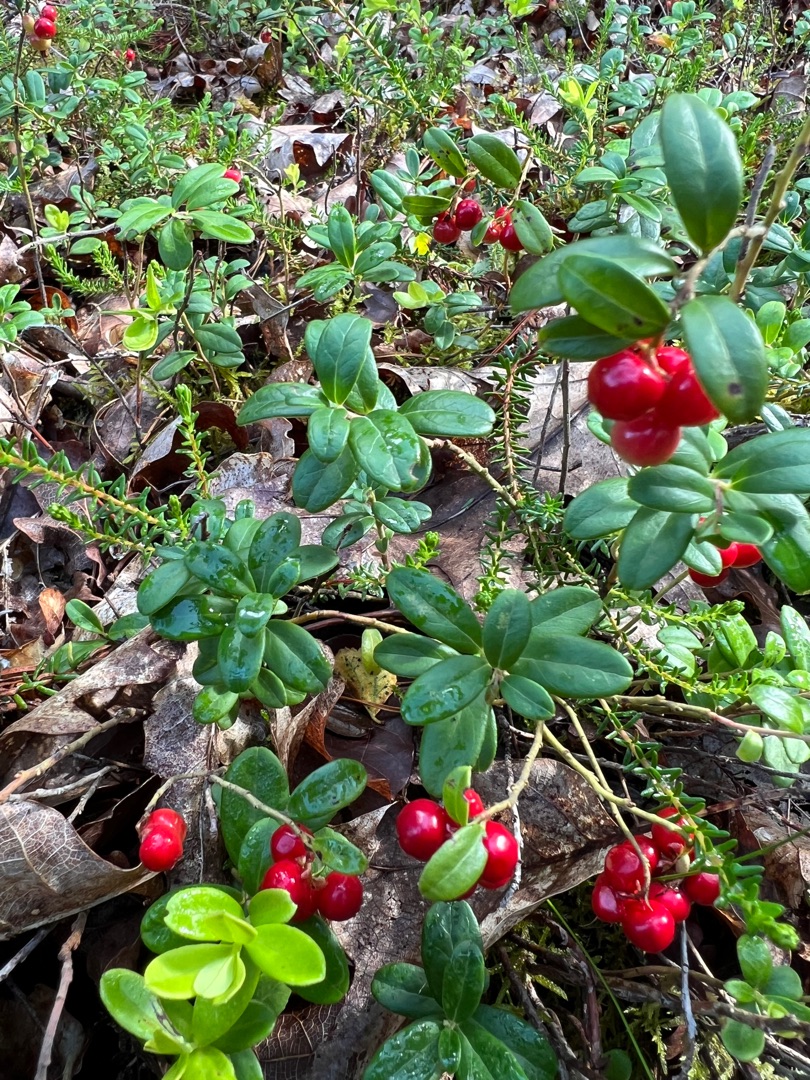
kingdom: Plantae
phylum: Tracheophyta
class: Magnoliopsida
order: Ericales
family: Ericaceae
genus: Vaccinium
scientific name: Vaccinium vitis-idaea
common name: Tyttebær
